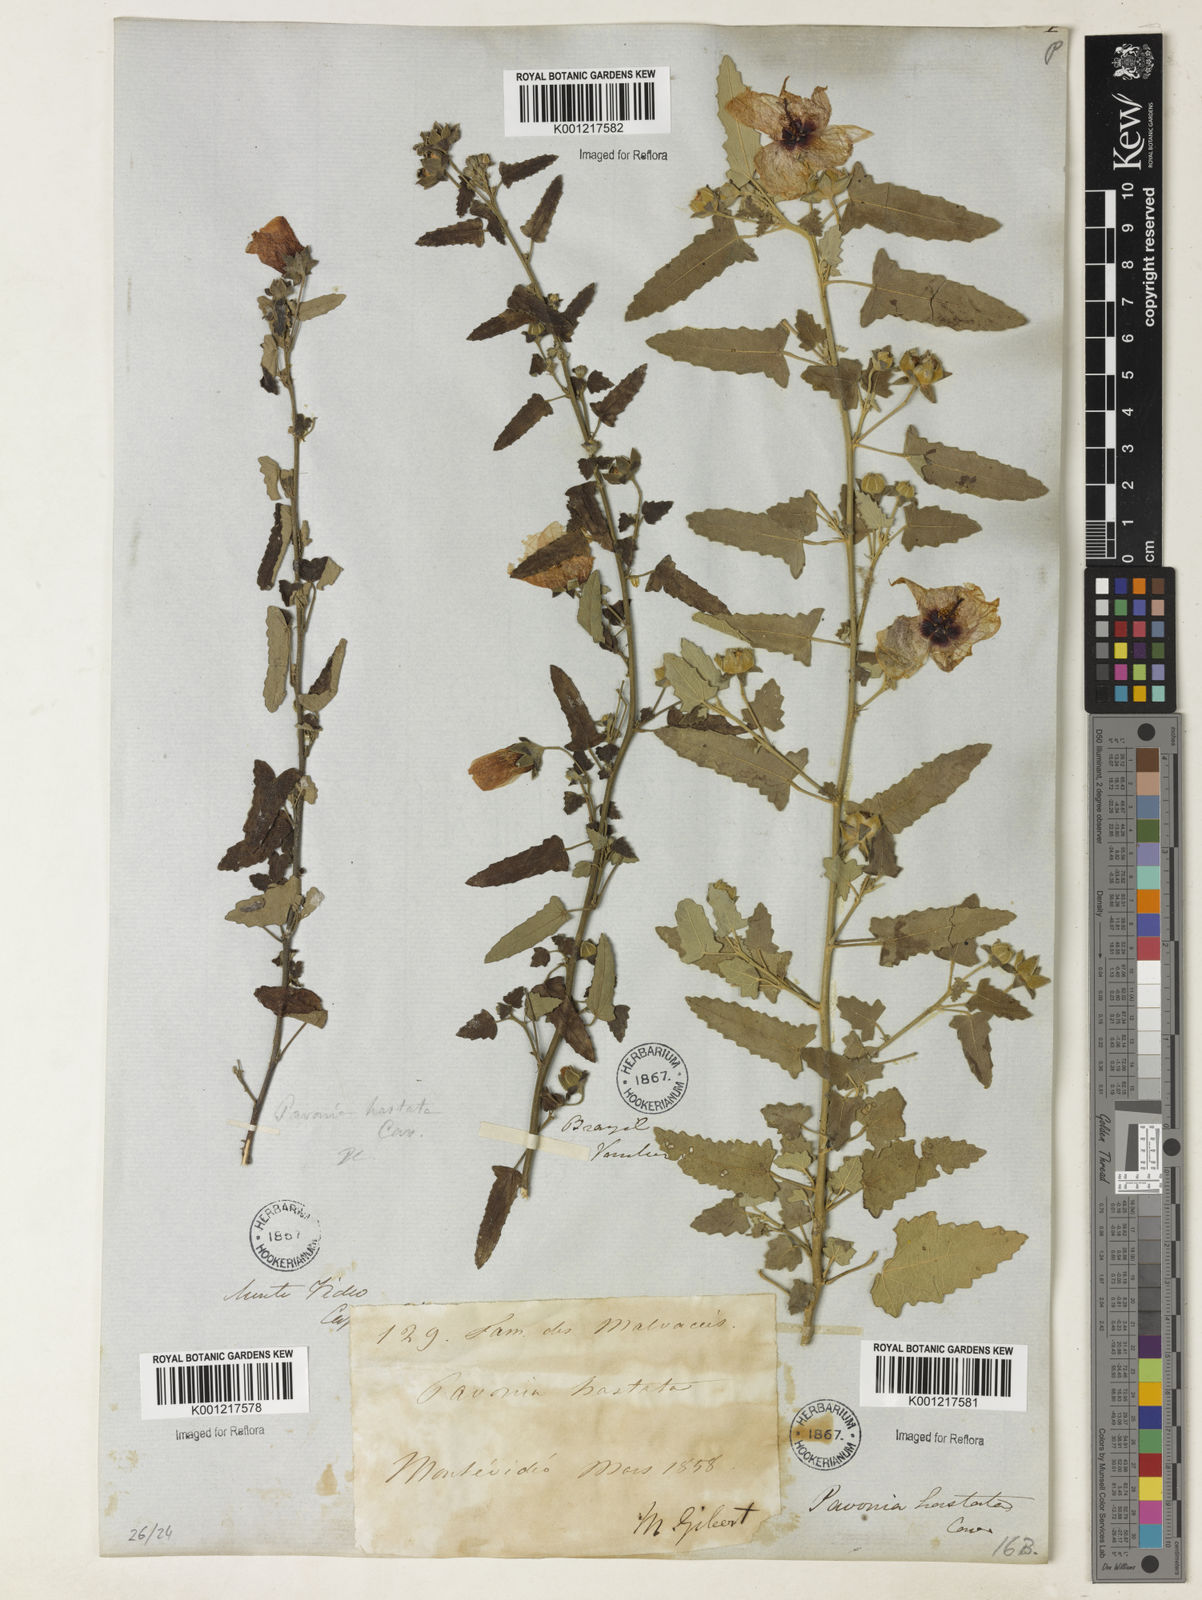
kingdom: Plantae
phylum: Tracheophyta
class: Magnoliopsida
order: Malvales
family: Malvaceae
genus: Pavonia
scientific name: Pavonia hastata
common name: Spearleaf swampmallow
